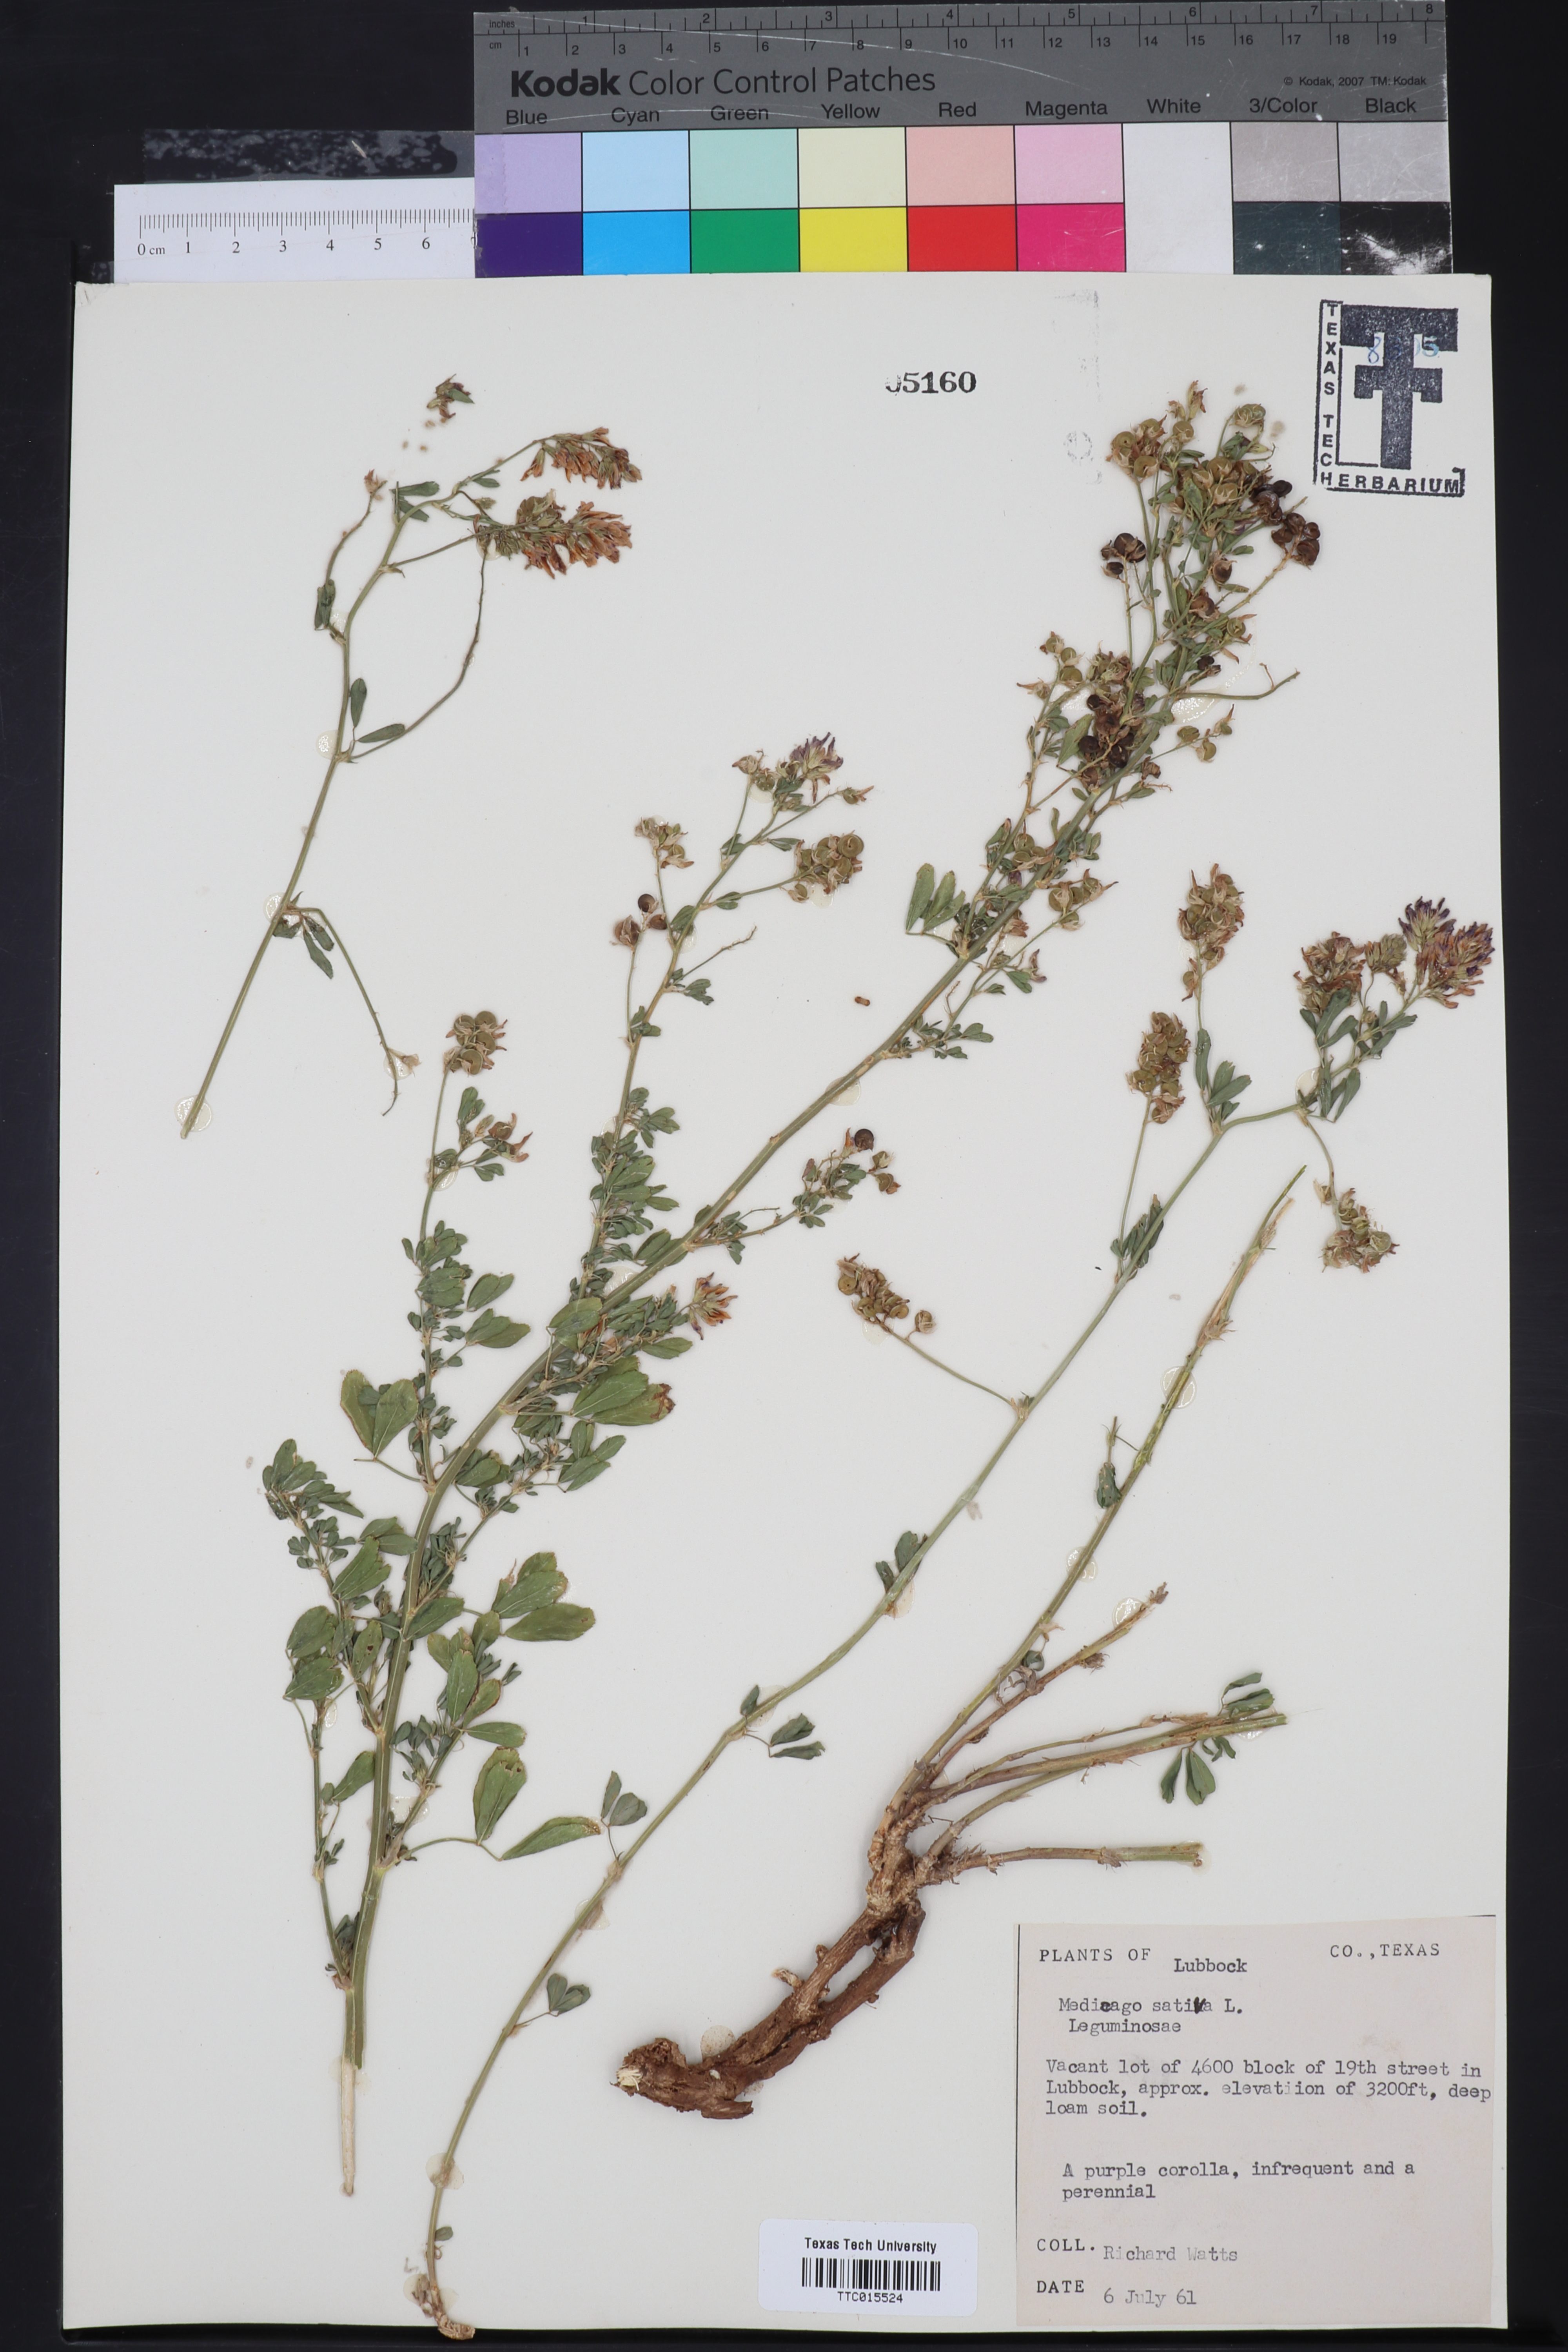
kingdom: Plantae
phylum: Tracheophyta
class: Magnoliopsida
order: Fabales
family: Fabaceae
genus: Medicago
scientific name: Medicago sativa
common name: Alfalfa
